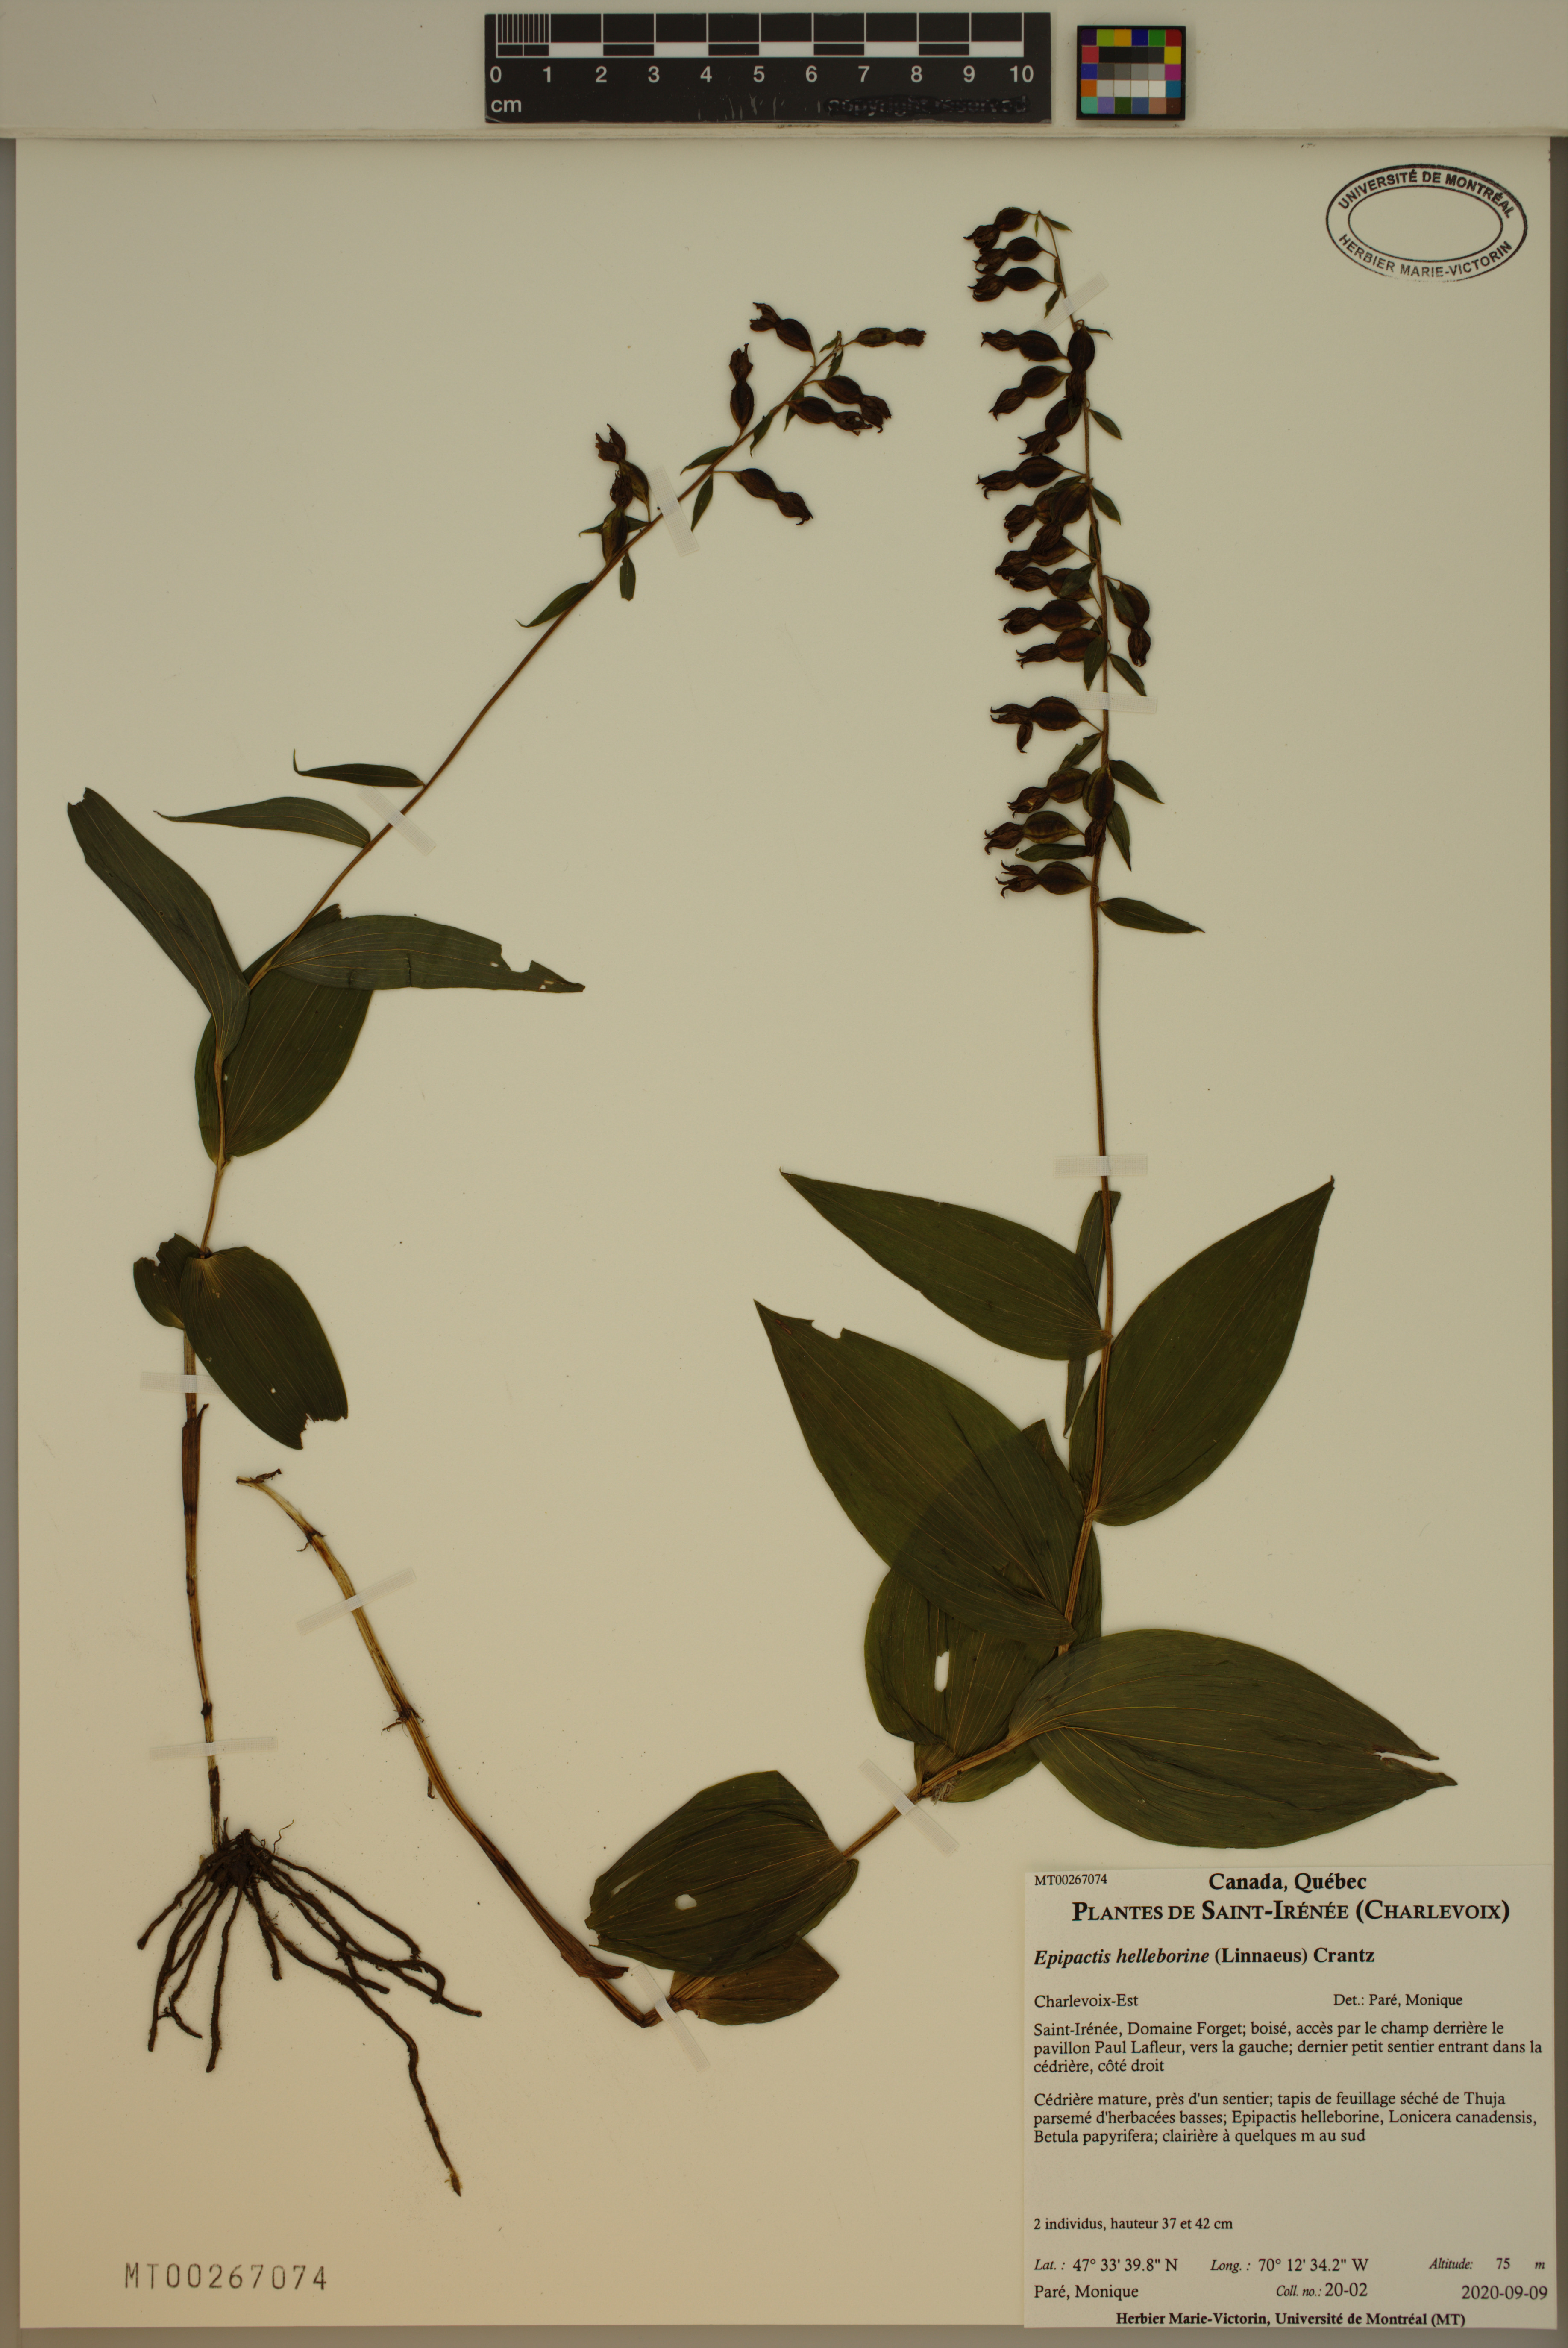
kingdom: Plantae
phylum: Tracheophyta
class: Liliopsida
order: Asparagales
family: Orchidaceae
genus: Epipactis
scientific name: Epipactis helleborine
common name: Broad-leaved helleborine
